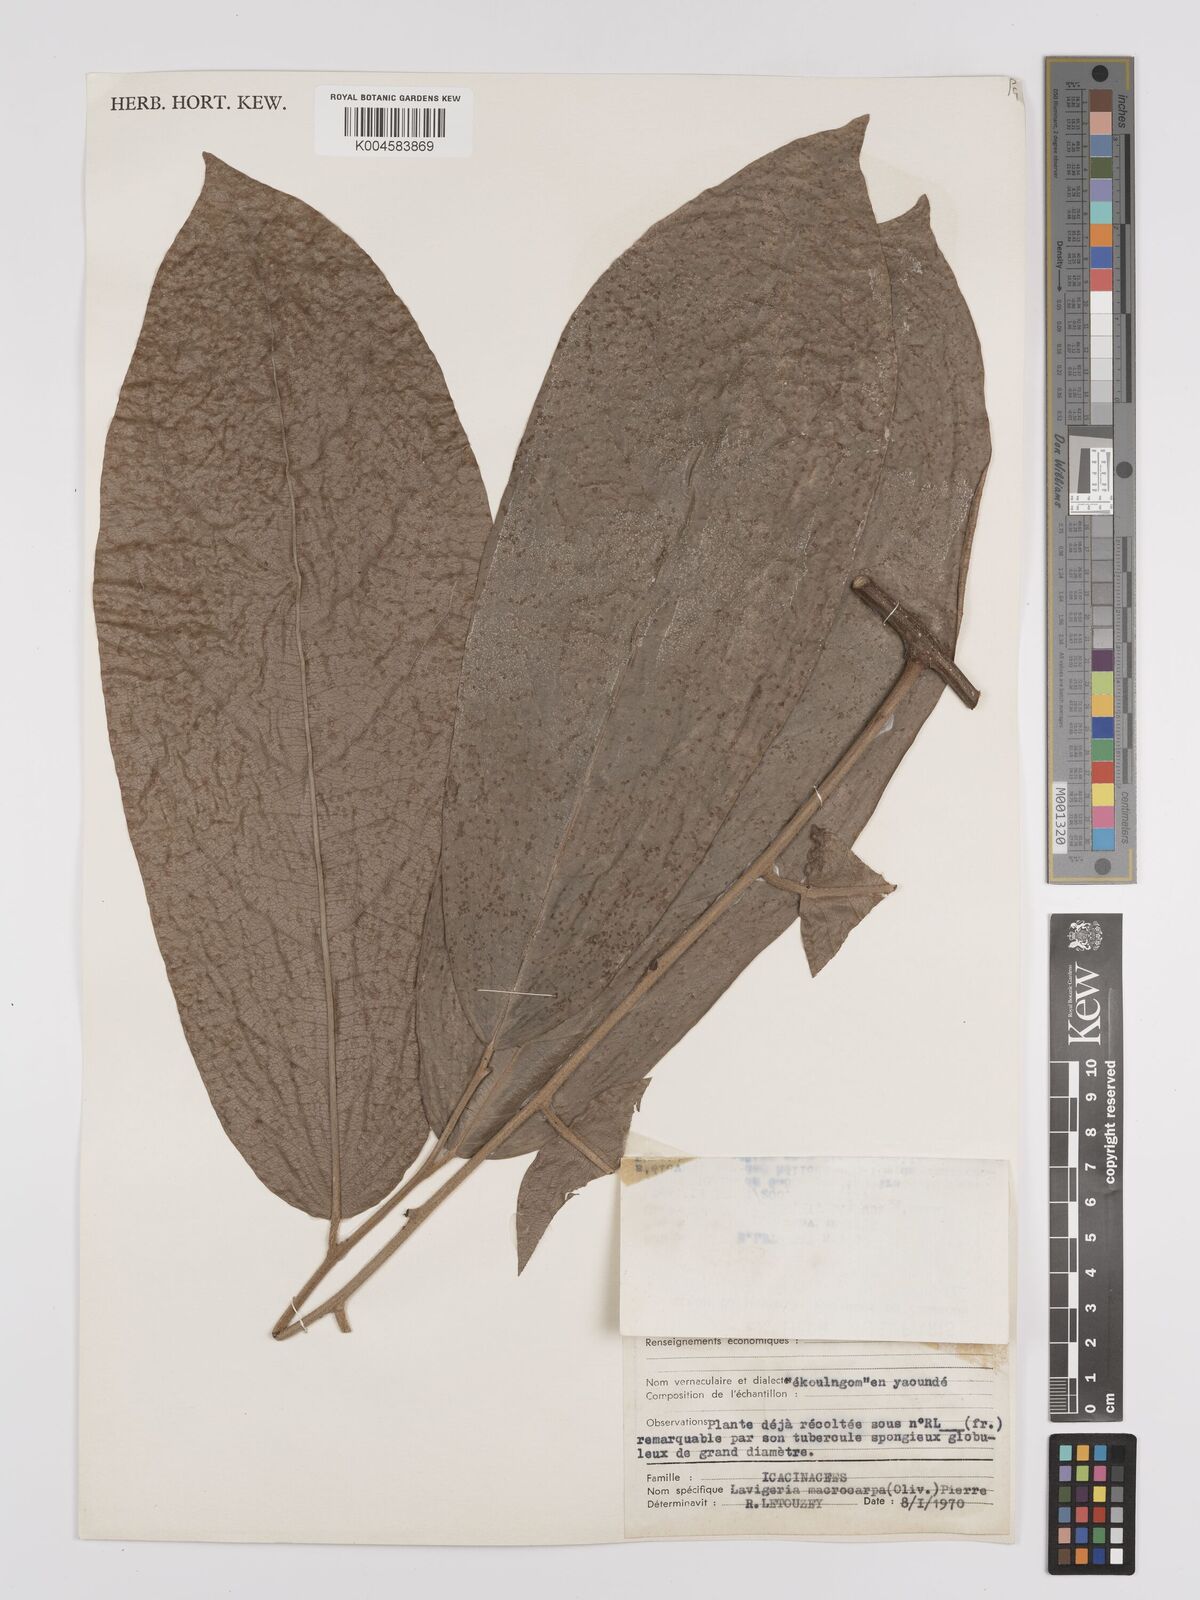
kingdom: Plantae
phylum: Tracheophyta
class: Magnoliopsida
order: Icacinales
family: Icacinaceae
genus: Lavigeria
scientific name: Lavigeria macrocarpa
